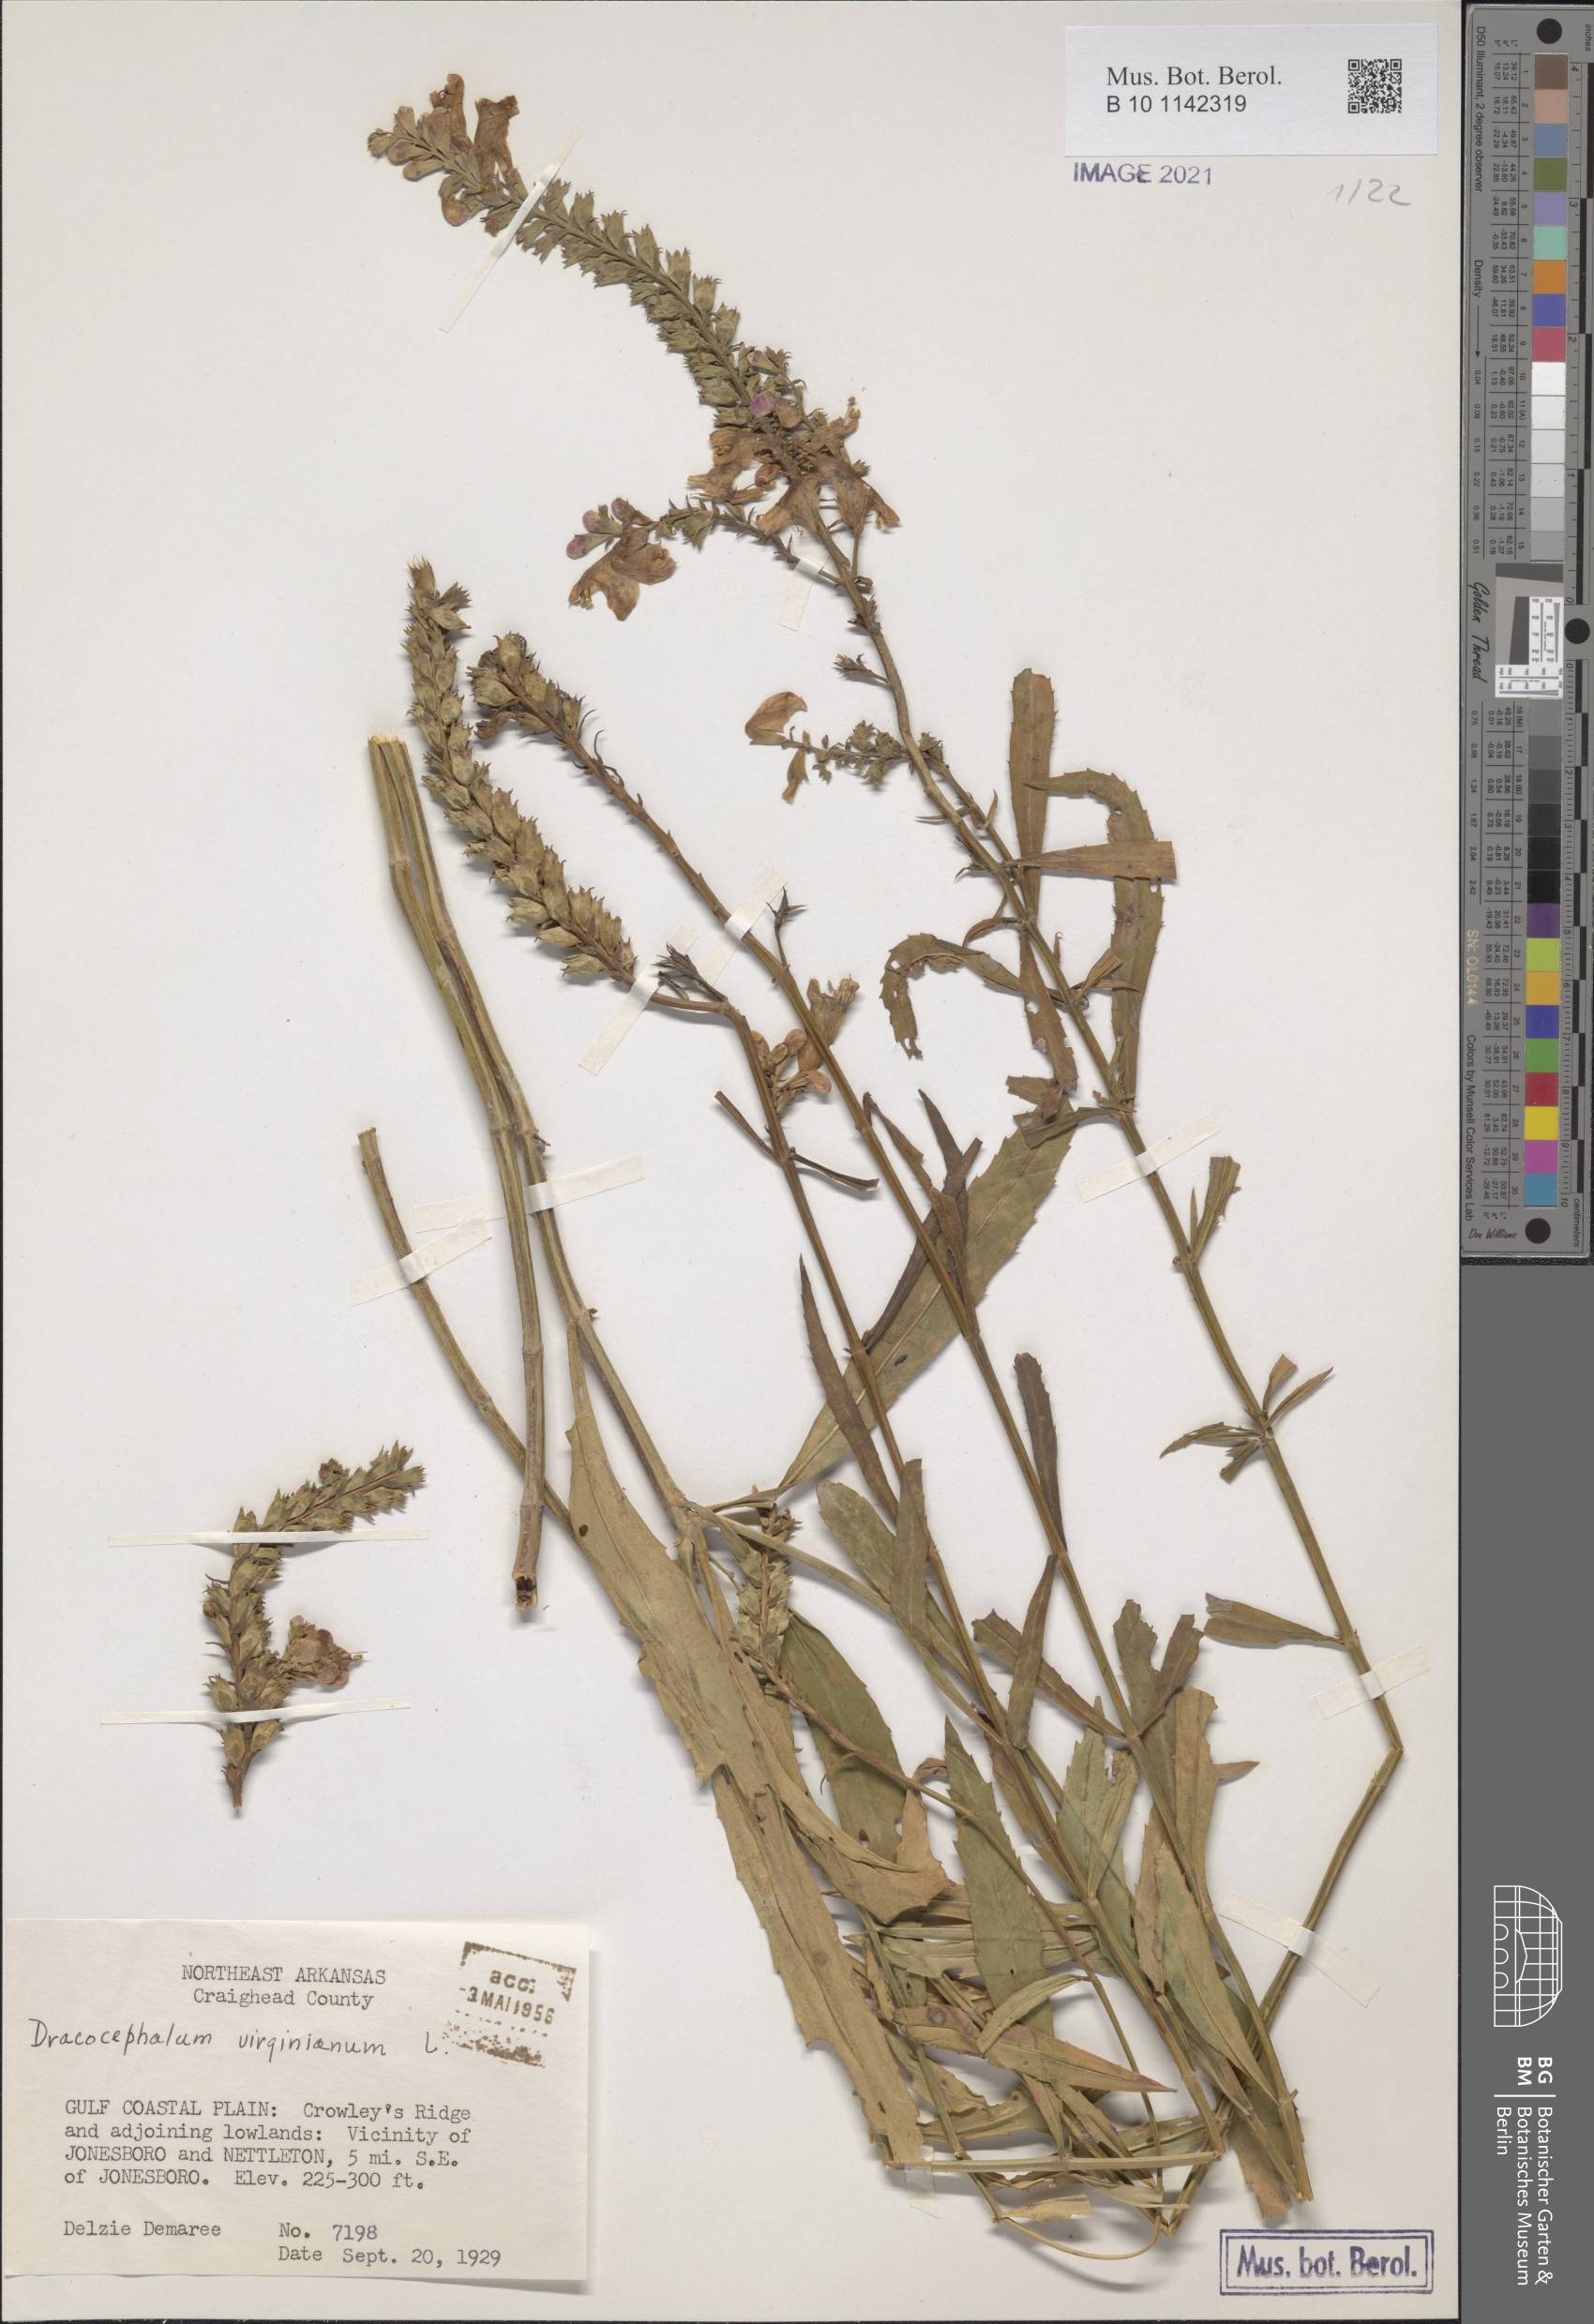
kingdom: Plantae
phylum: Tracheophyta
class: Magnoliopsida
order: Lamiales
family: Lamiaceae
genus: Physostegia
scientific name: Physostegia virginiana
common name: Obedient-plant
